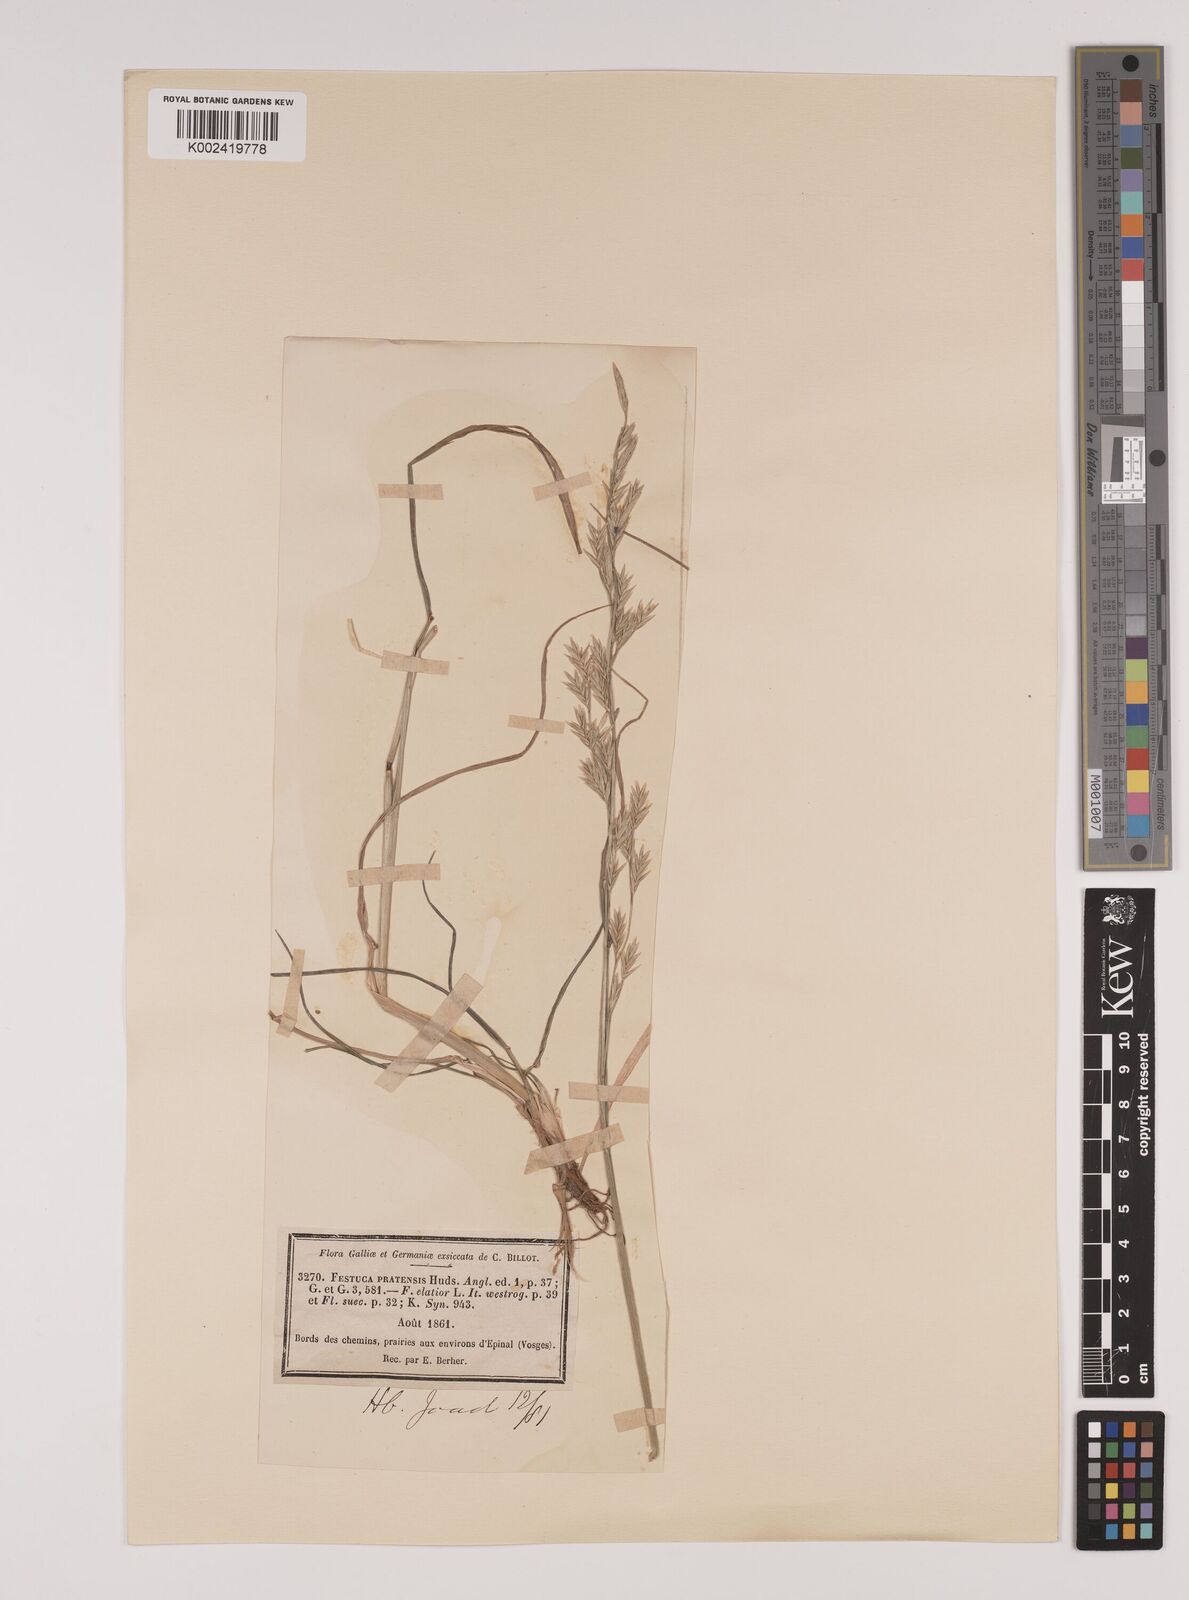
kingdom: Plantae
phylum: Tracheophyta
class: Liliopsida
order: Poales
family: Poaceae
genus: Lolium
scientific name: Lolium pratense
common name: Dover grass
